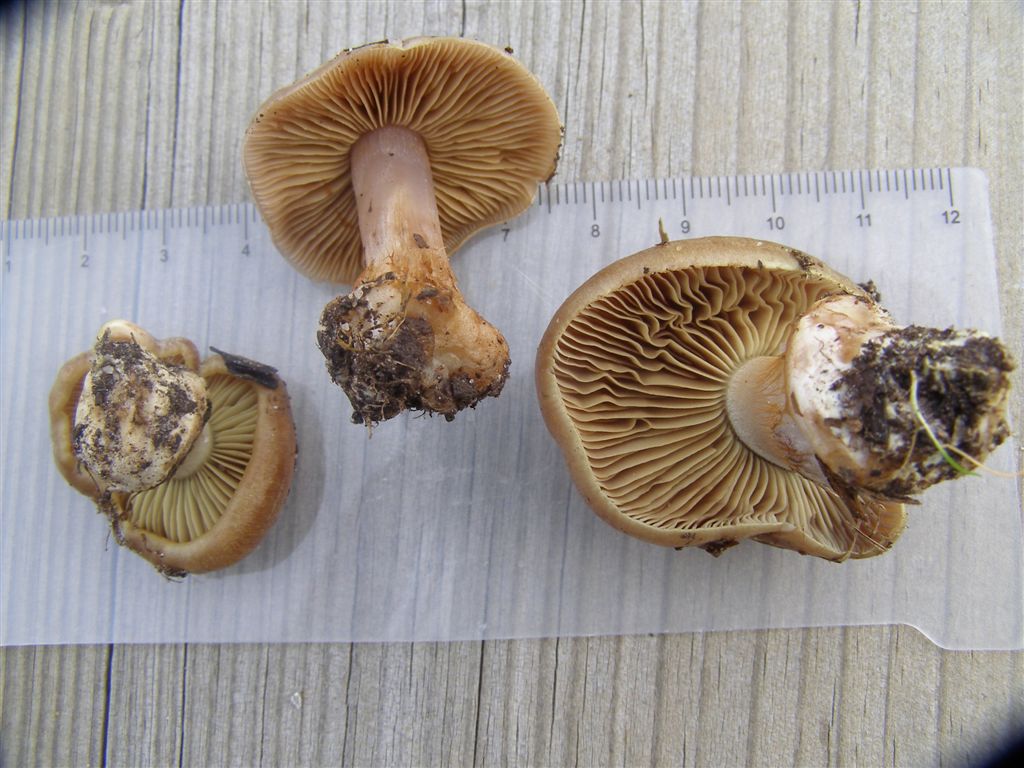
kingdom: Fungi
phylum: Basidiomycota
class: Agaricomycetes
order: Agaricales
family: Cortinariaceae
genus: Thaxterogaster
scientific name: Thaxterogaster herpeticus
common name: grønrandet slørhat
